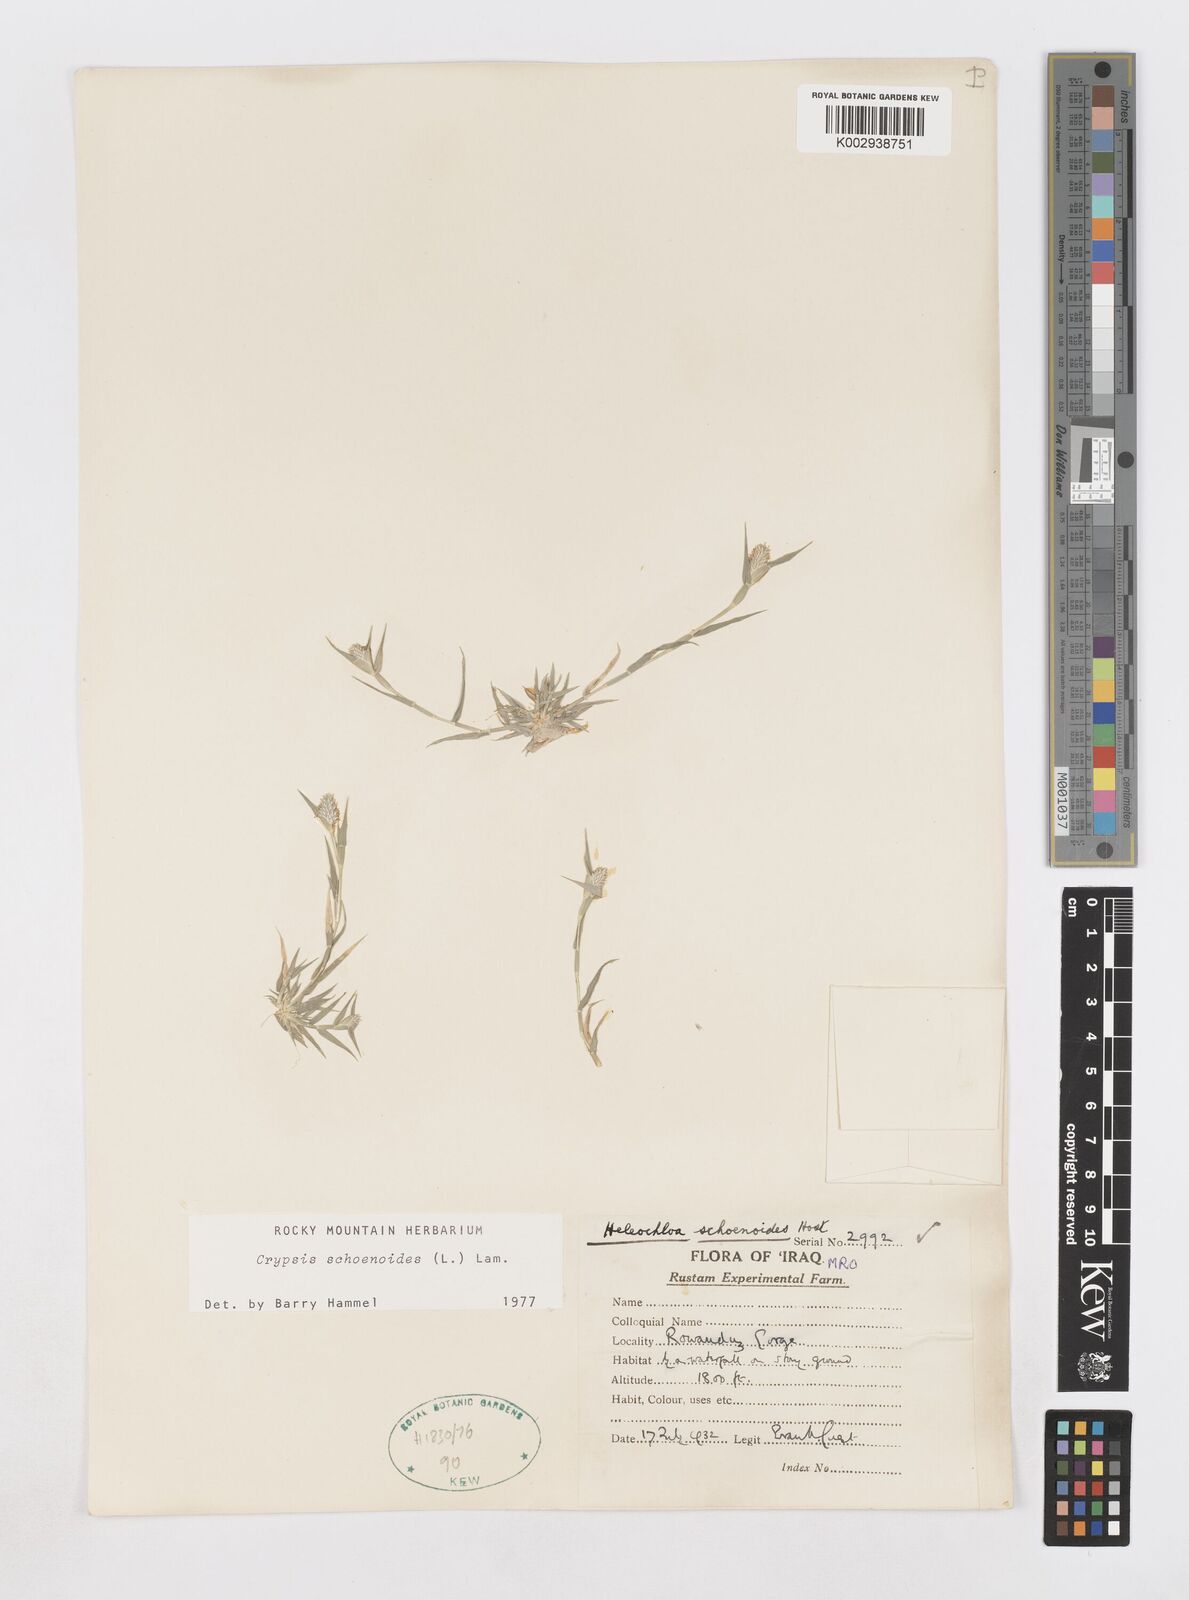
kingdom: Plantae
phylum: Tracheophyta
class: Liliopsida
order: Poales
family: Poaceae
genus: Sporobolus
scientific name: Sporobolus schoenoides
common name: Rush-like timothy
